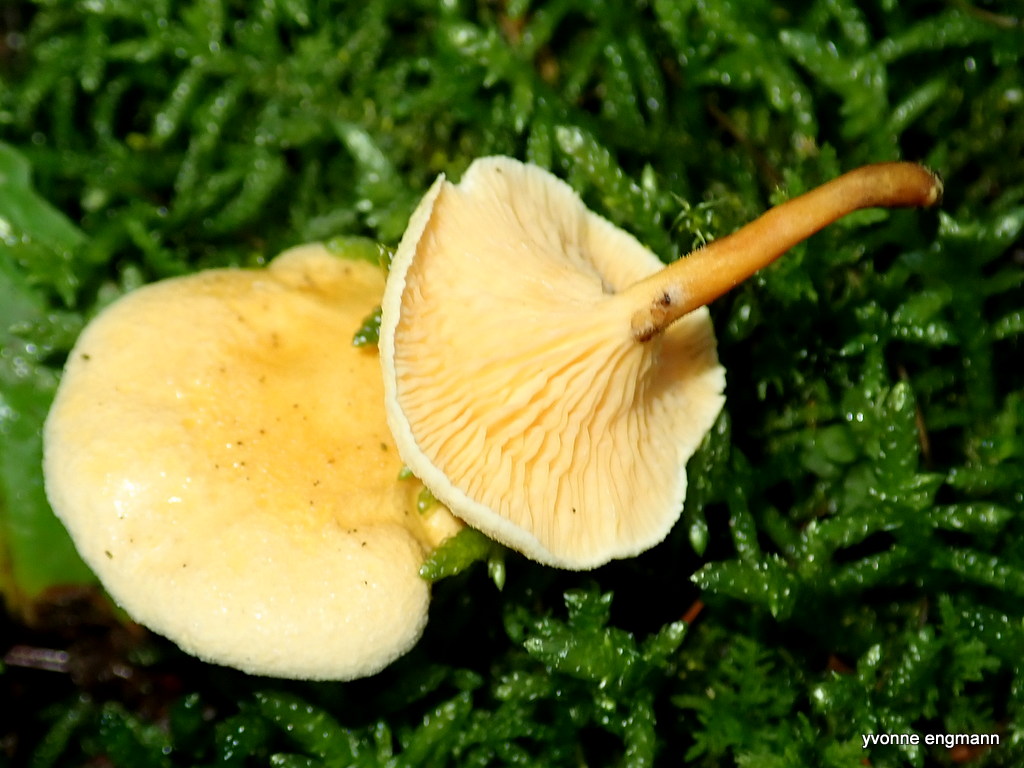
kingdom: Fungi
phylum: Basidiomycota
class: Agaricomycetes
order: Boletales
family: Hygrophoropsidaceae
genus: Hygrophoropsis
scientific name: Hygrophoropsis aurantiaca
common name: almindelig orangekantarel
